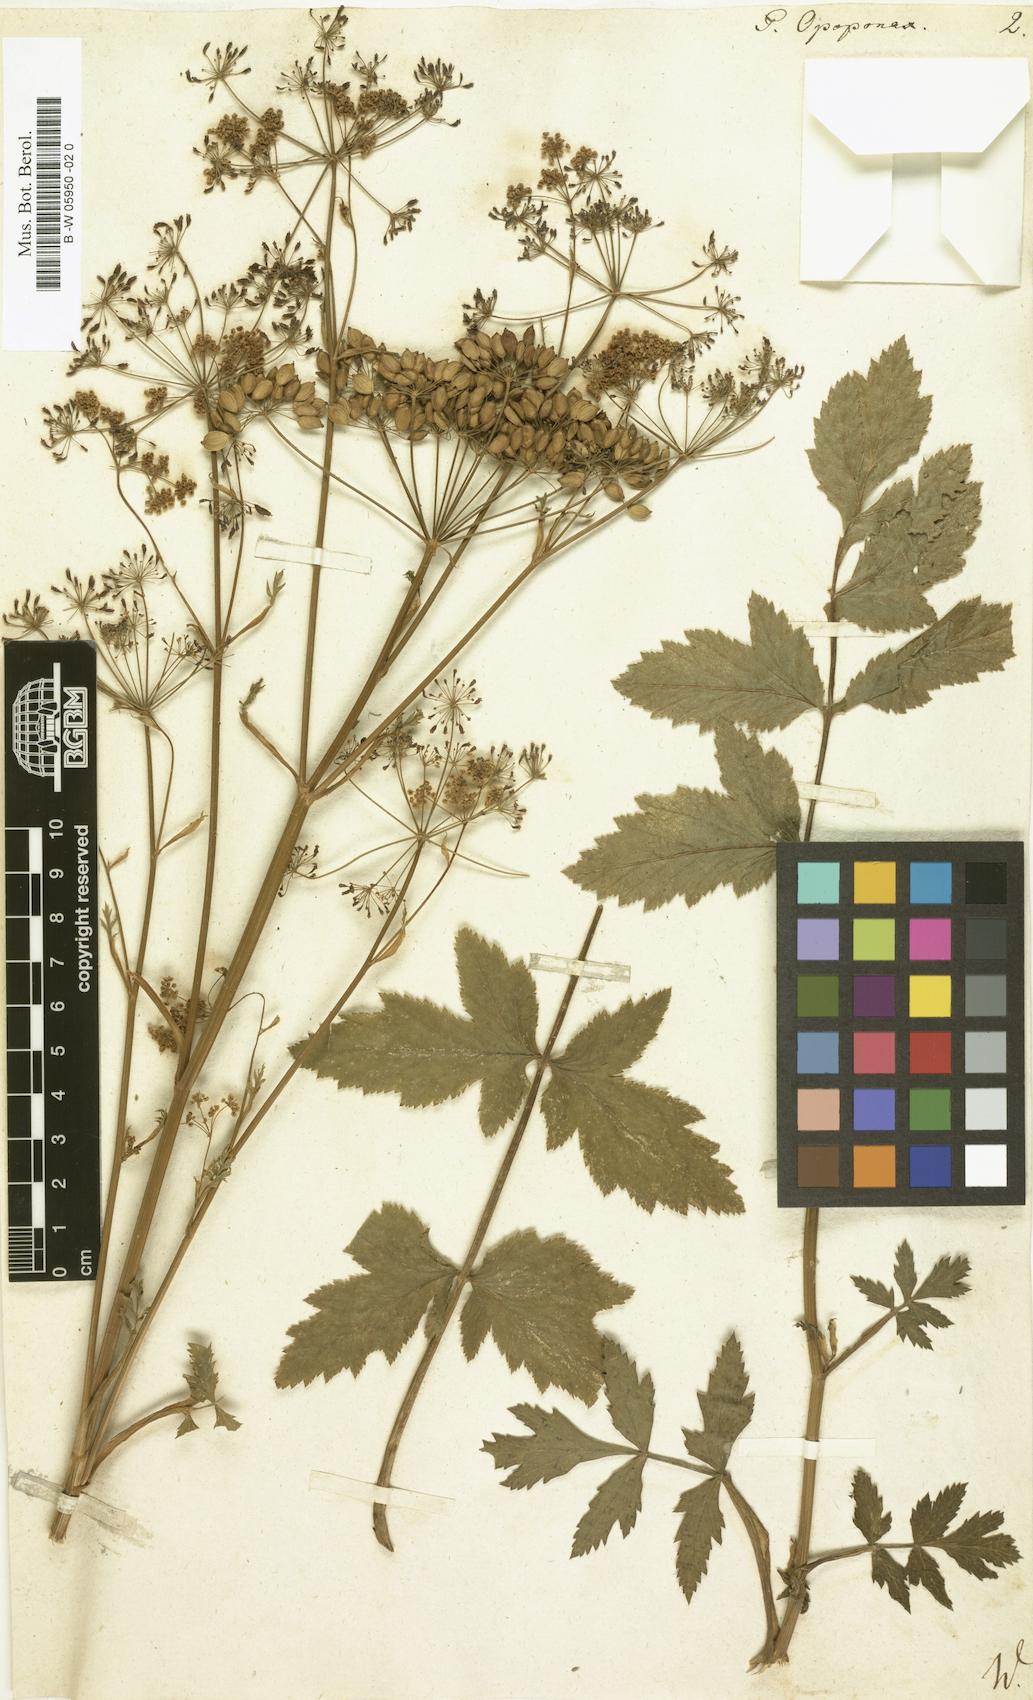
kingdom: Plantae
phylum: Tracheophyta
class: Magnoliopsida
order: Apiales
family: Apiaceae
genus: Opopanax
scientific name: Opopanax chironium
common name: Hercules-all-heal
